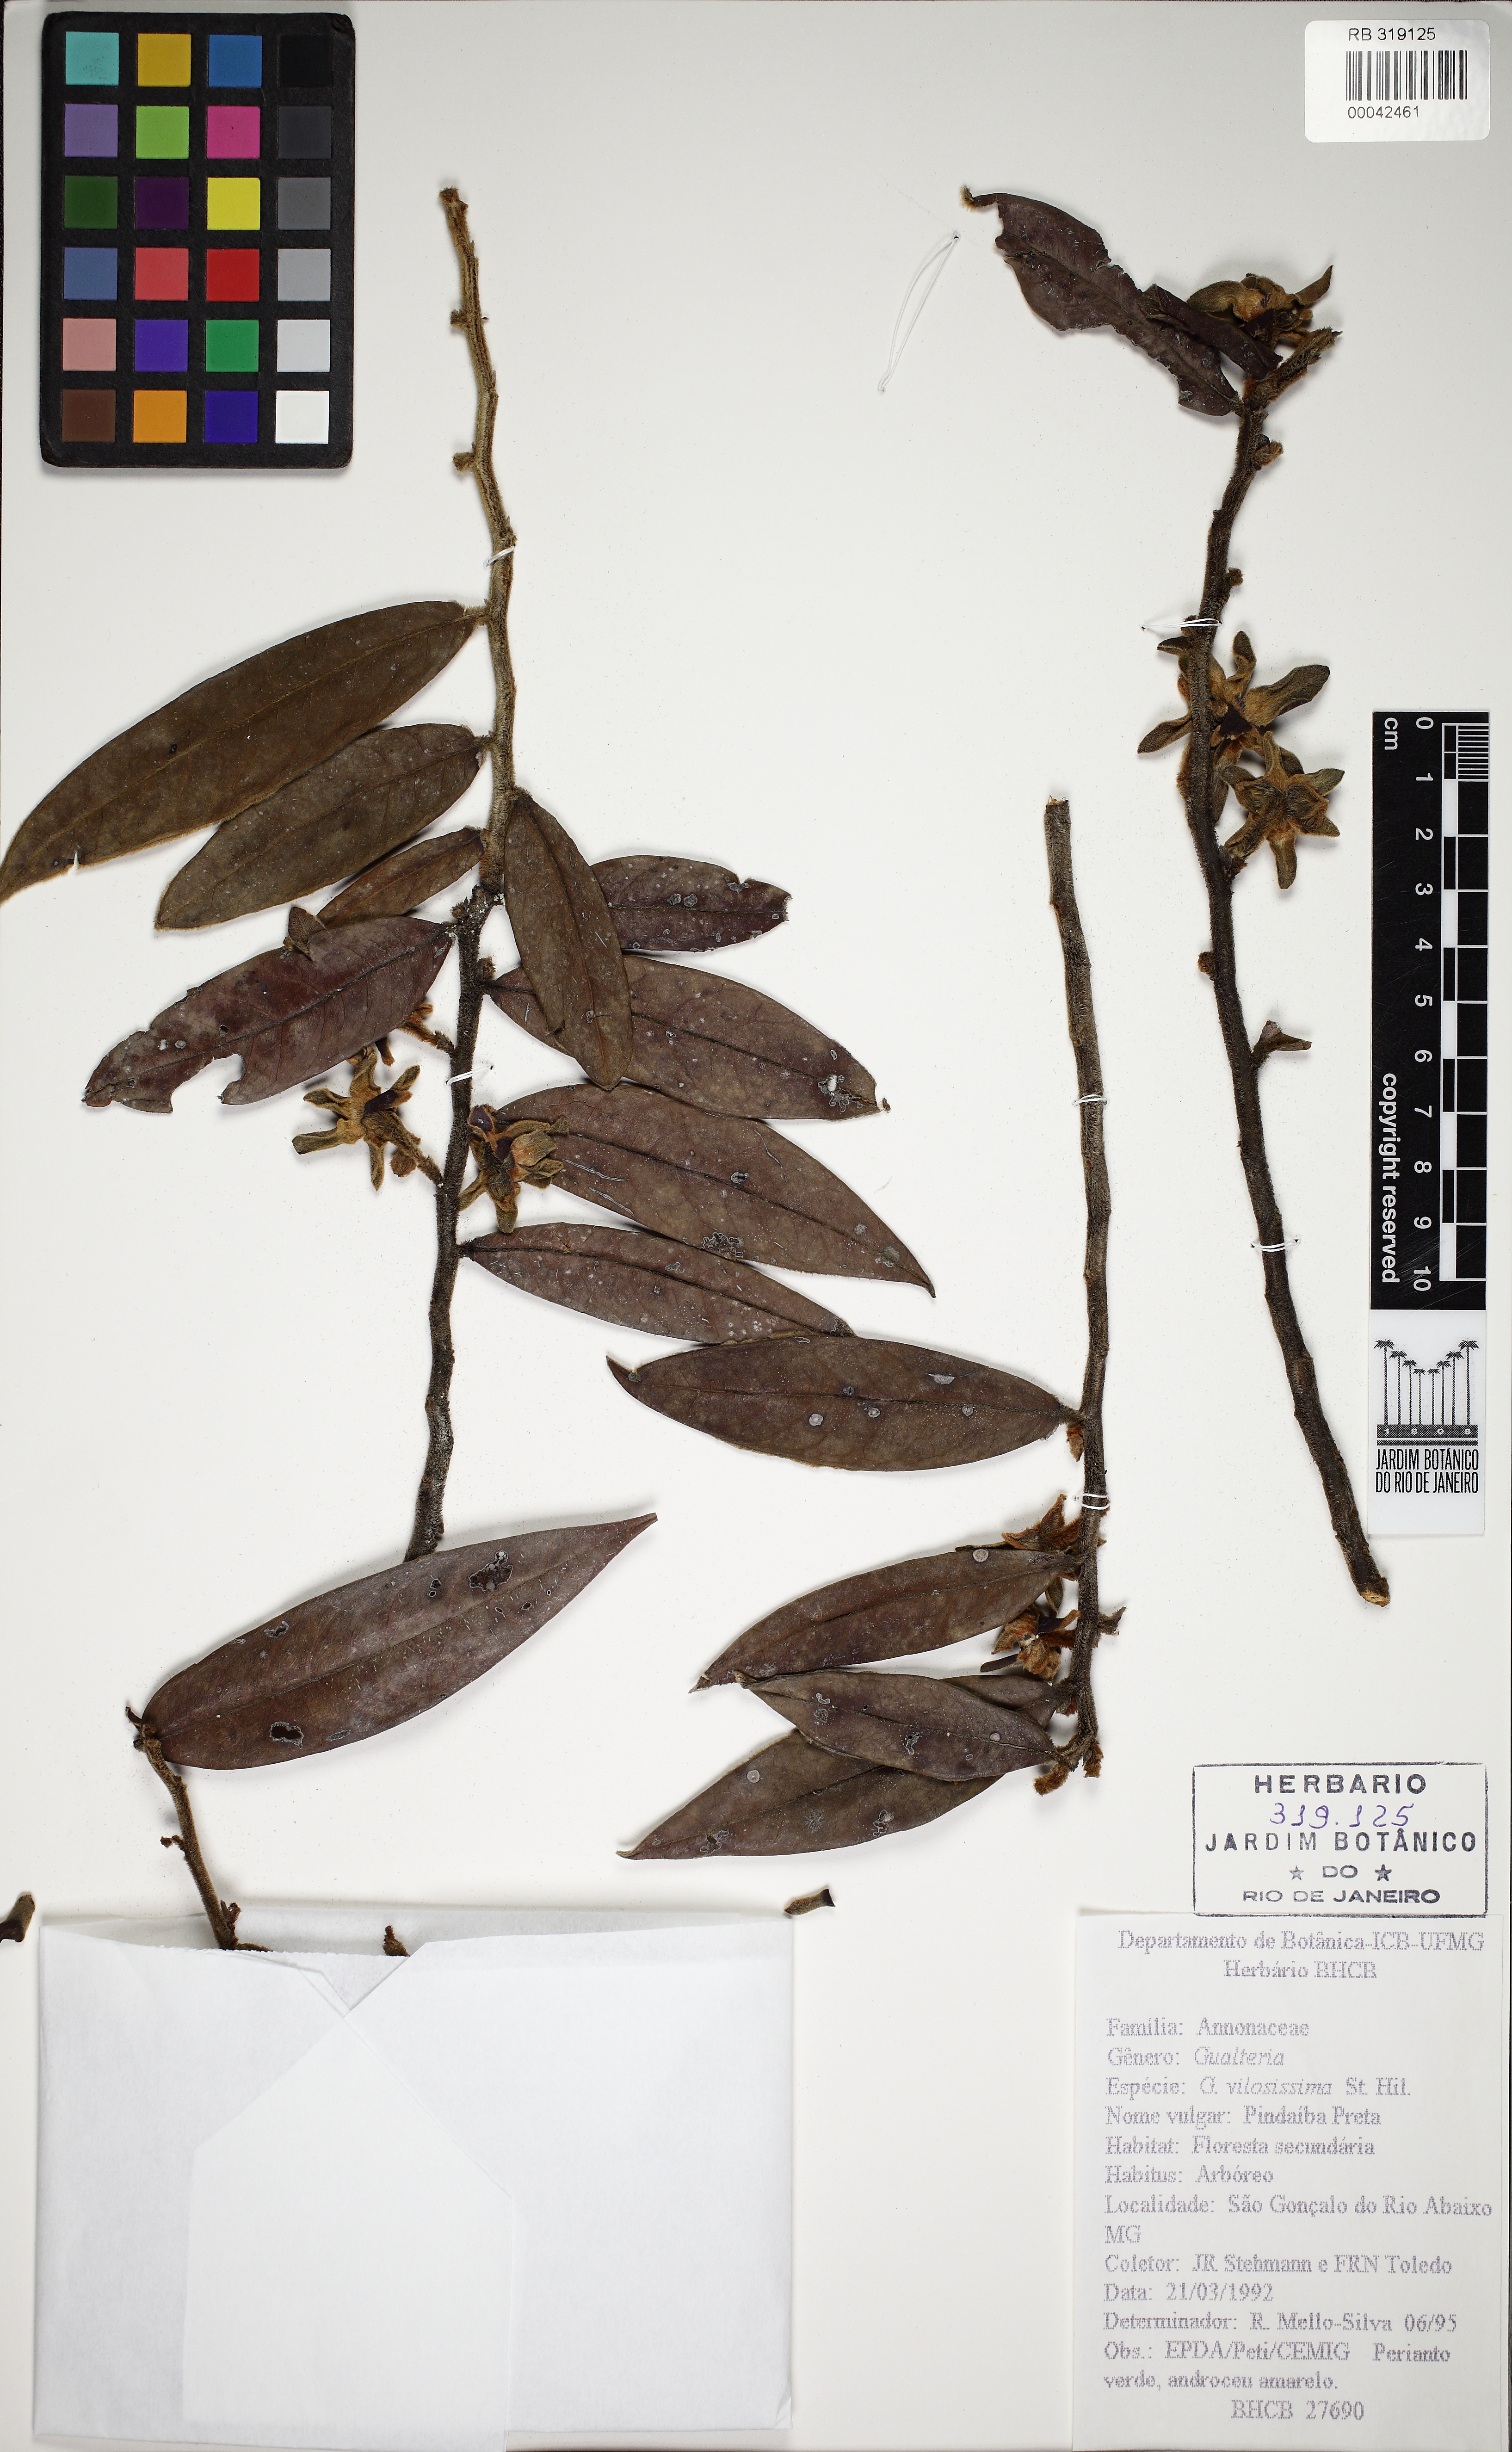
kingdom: Plantae
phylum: Tracheophyta
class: Magnoliopsida
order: Magnoliales
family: Annonaceae
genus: Guatteria
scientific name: Guatteria villosissima
